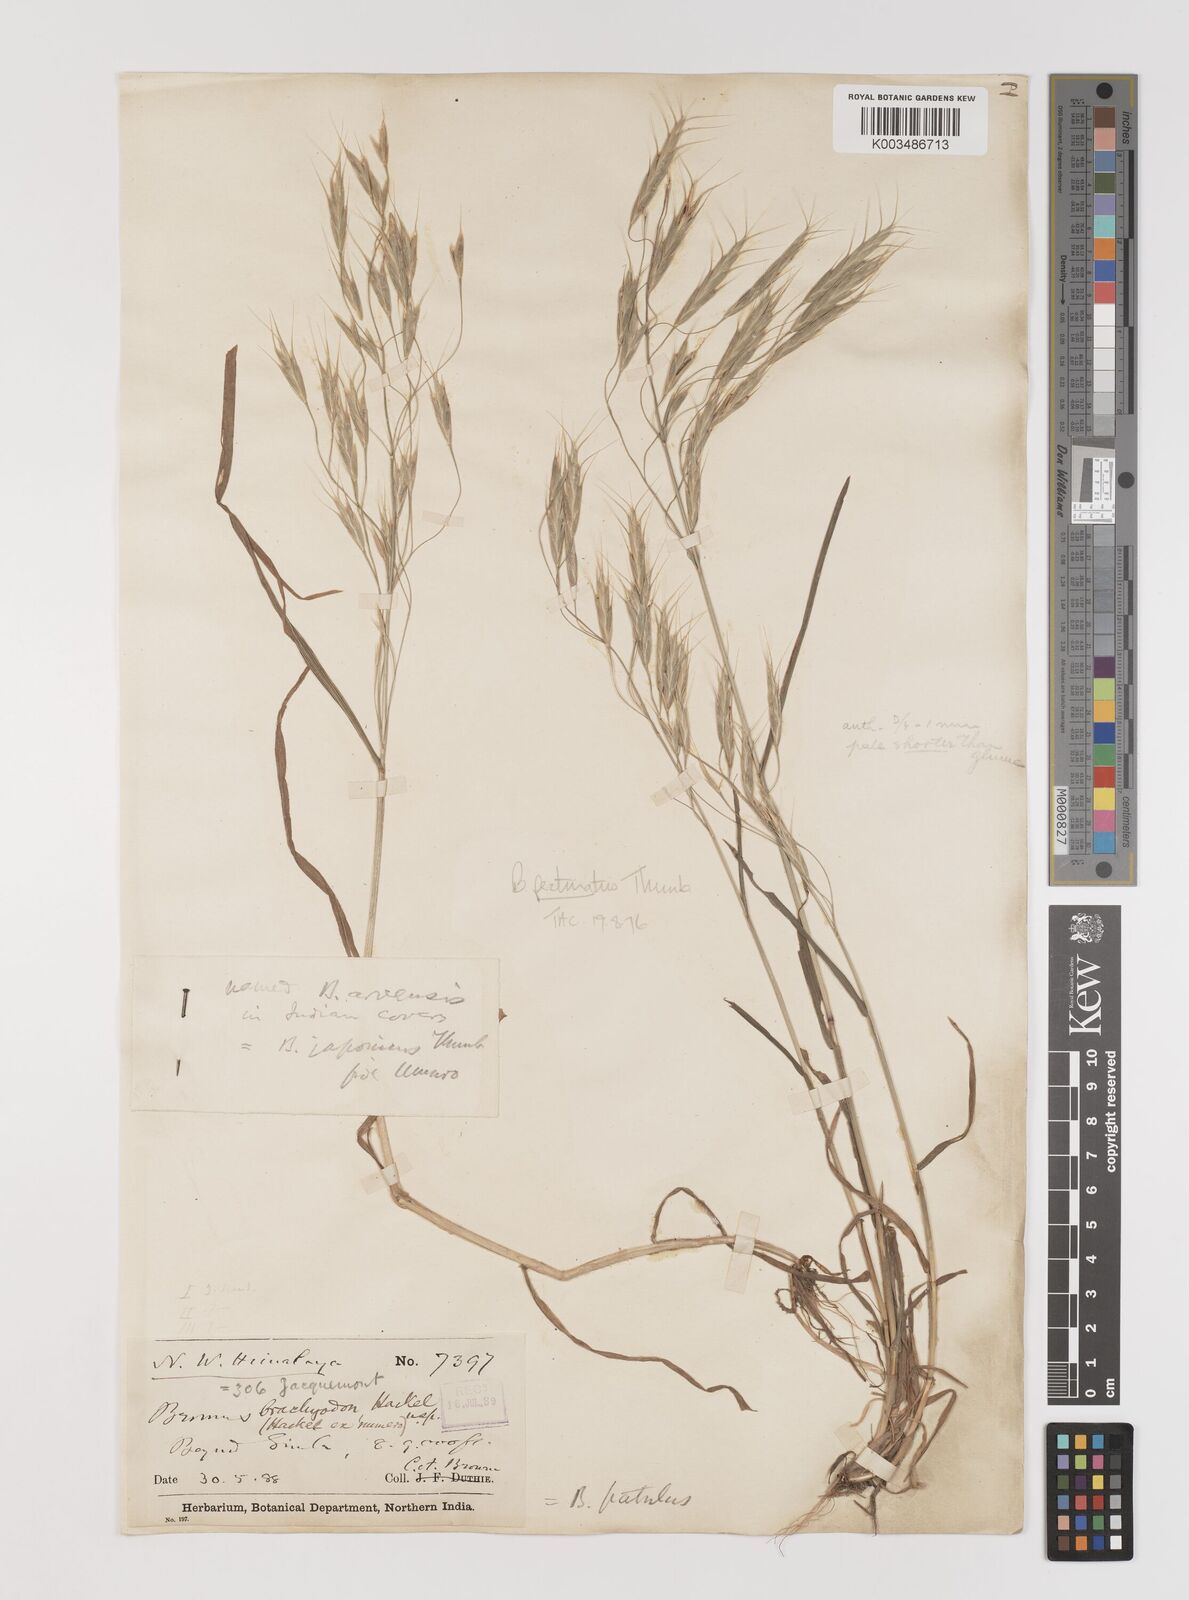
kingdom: Plantae
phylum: Tracheophyta
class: Liliopsida
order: Poales
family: Poaceae
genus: Bromus
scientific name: Bromus pectinatus
